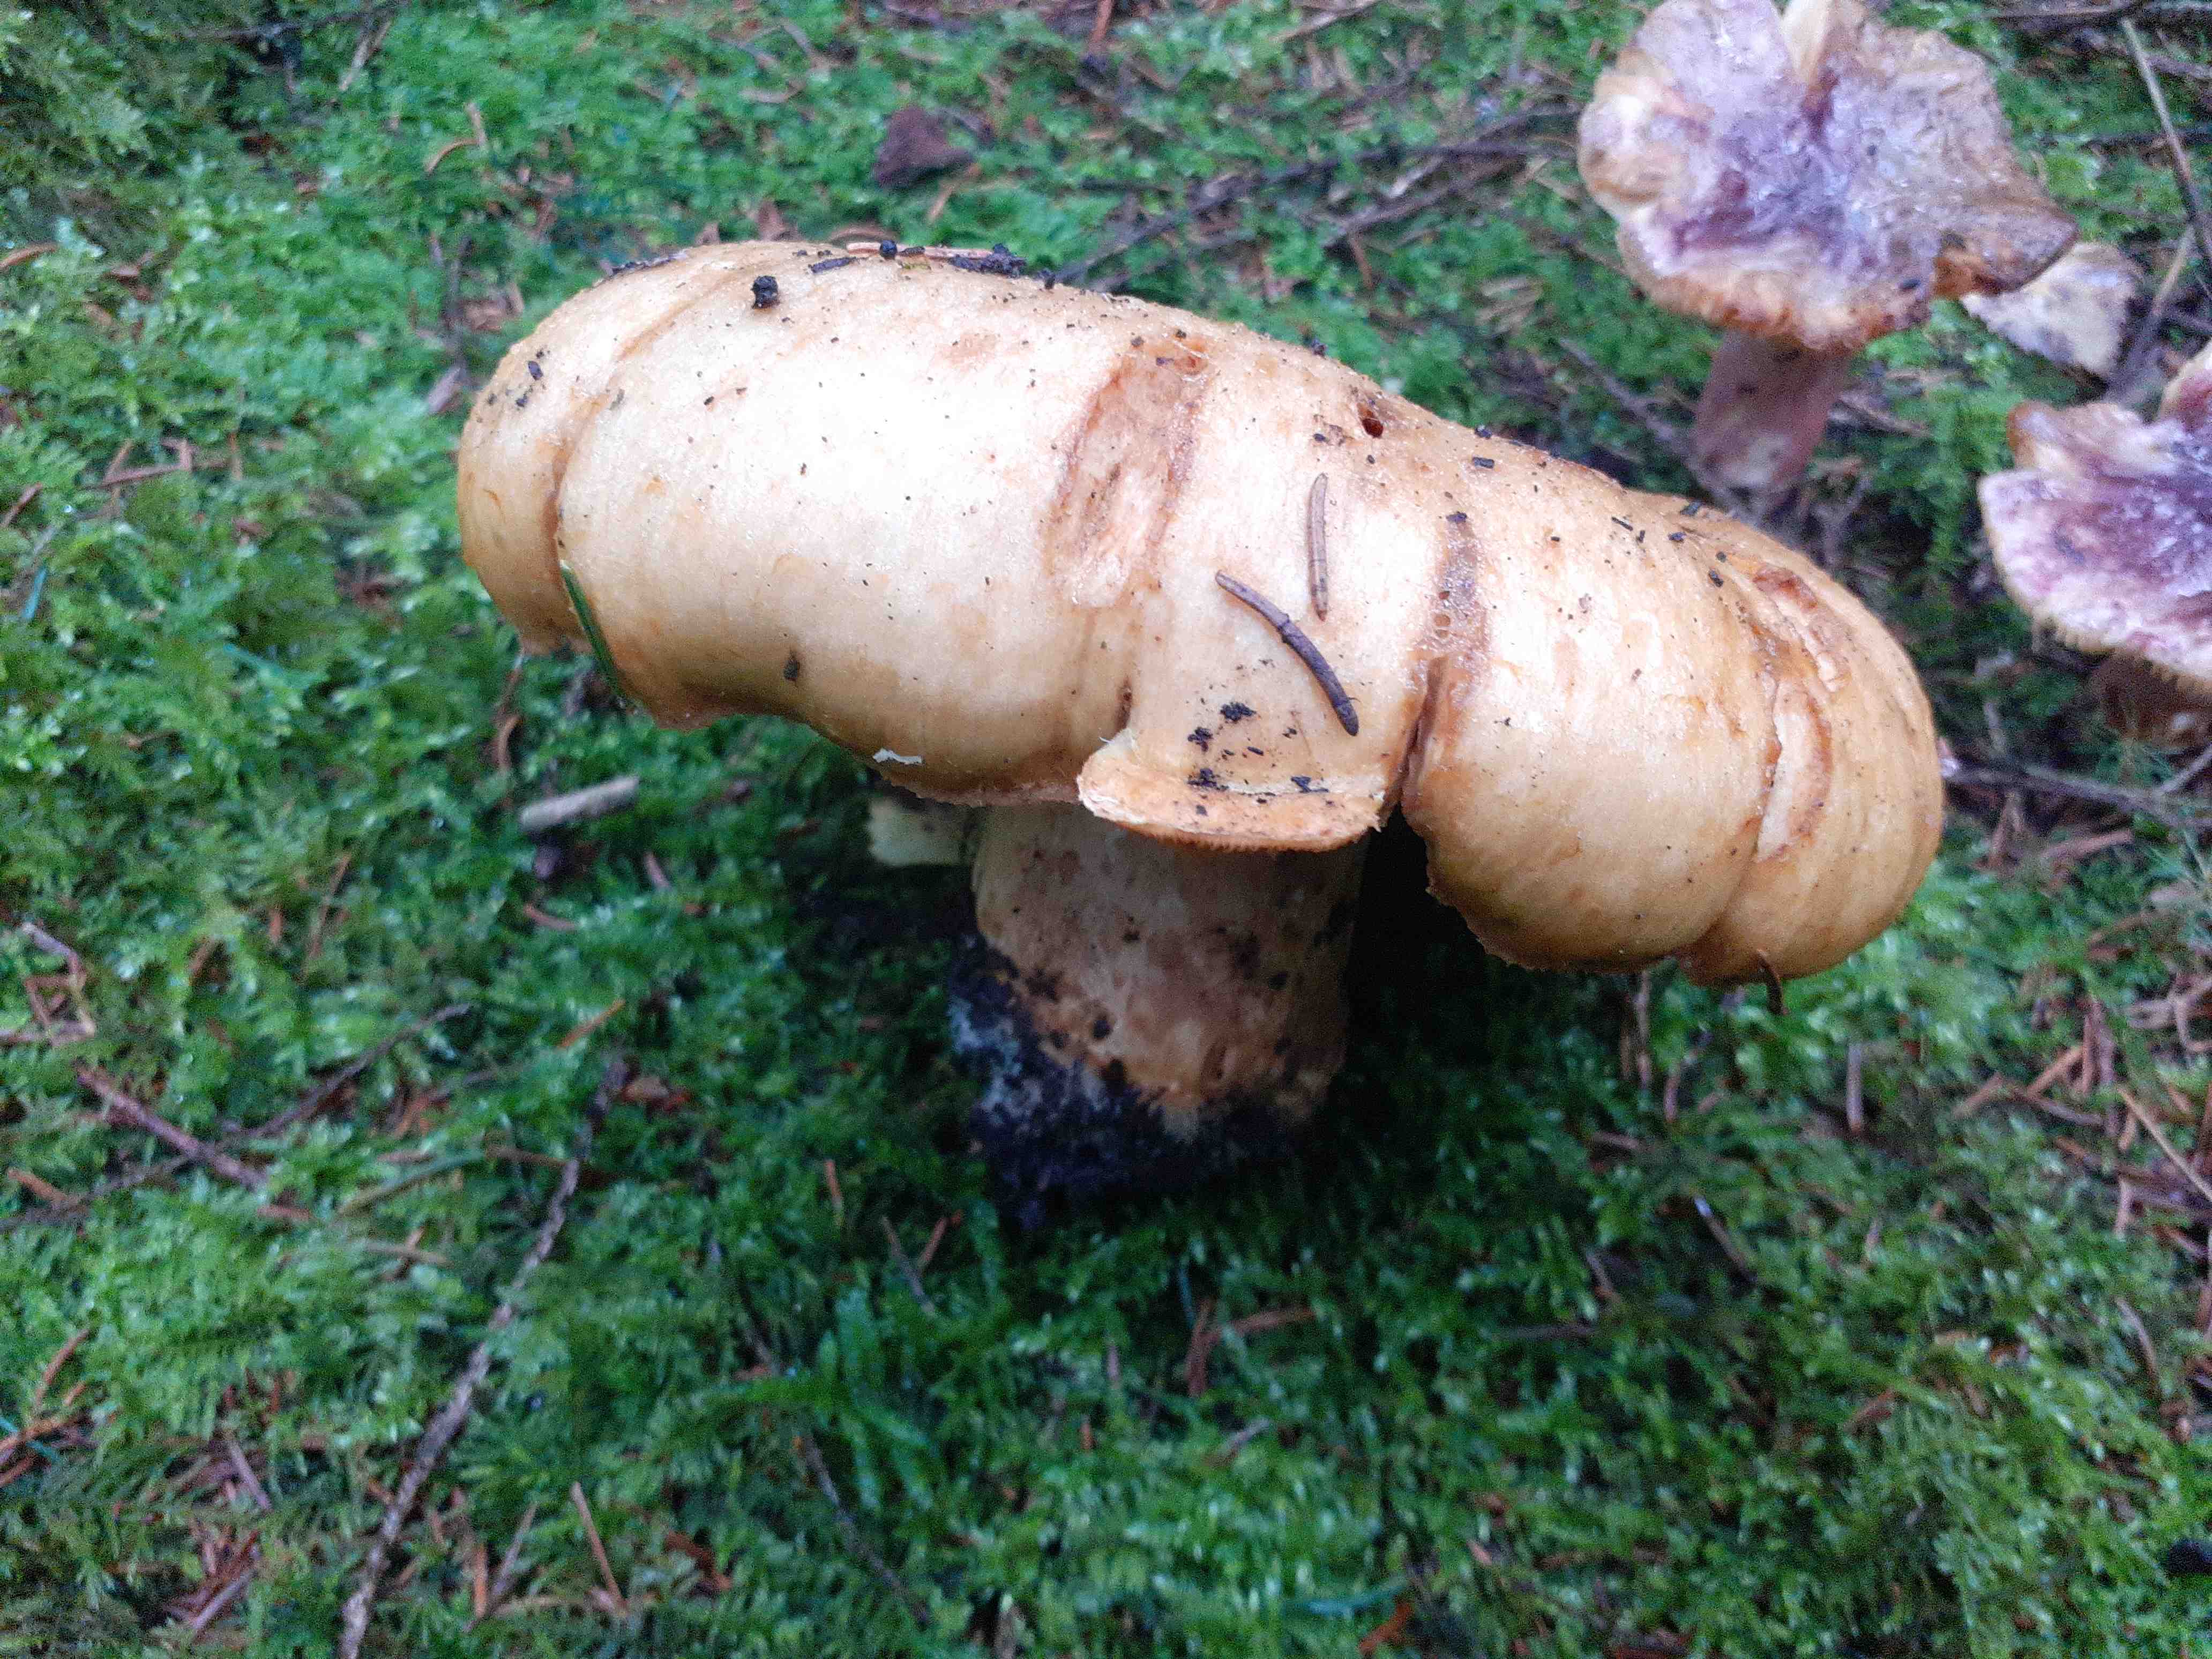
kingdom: Fungi
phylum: Basidiomycota
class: Agaricomycetes
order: Russulales
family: Russulaceae
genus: Lactarius
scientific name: Lactarius scrobiculatus
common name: grubestokket mælkehat
